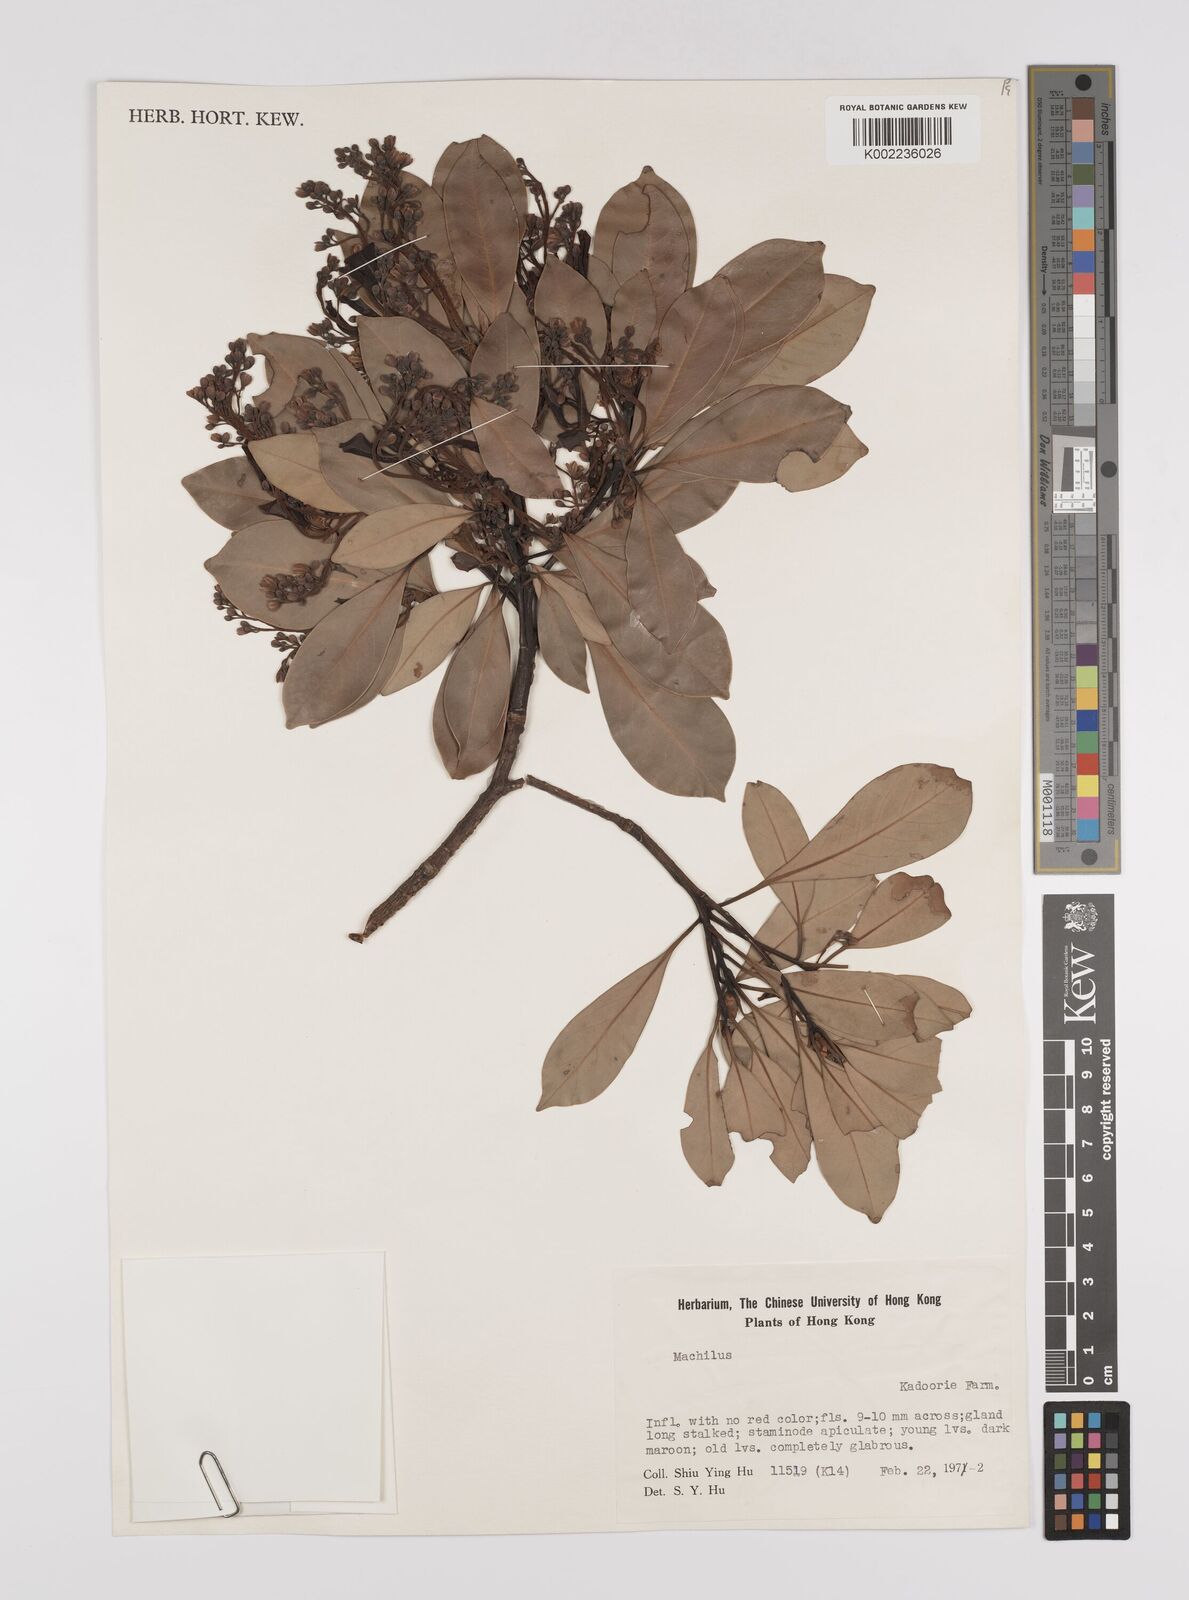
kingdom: Plantae
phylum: Tracheophyta
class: Magnoliopsida
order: Laurales
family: Lauraceae
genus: Persea
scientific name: Persea
